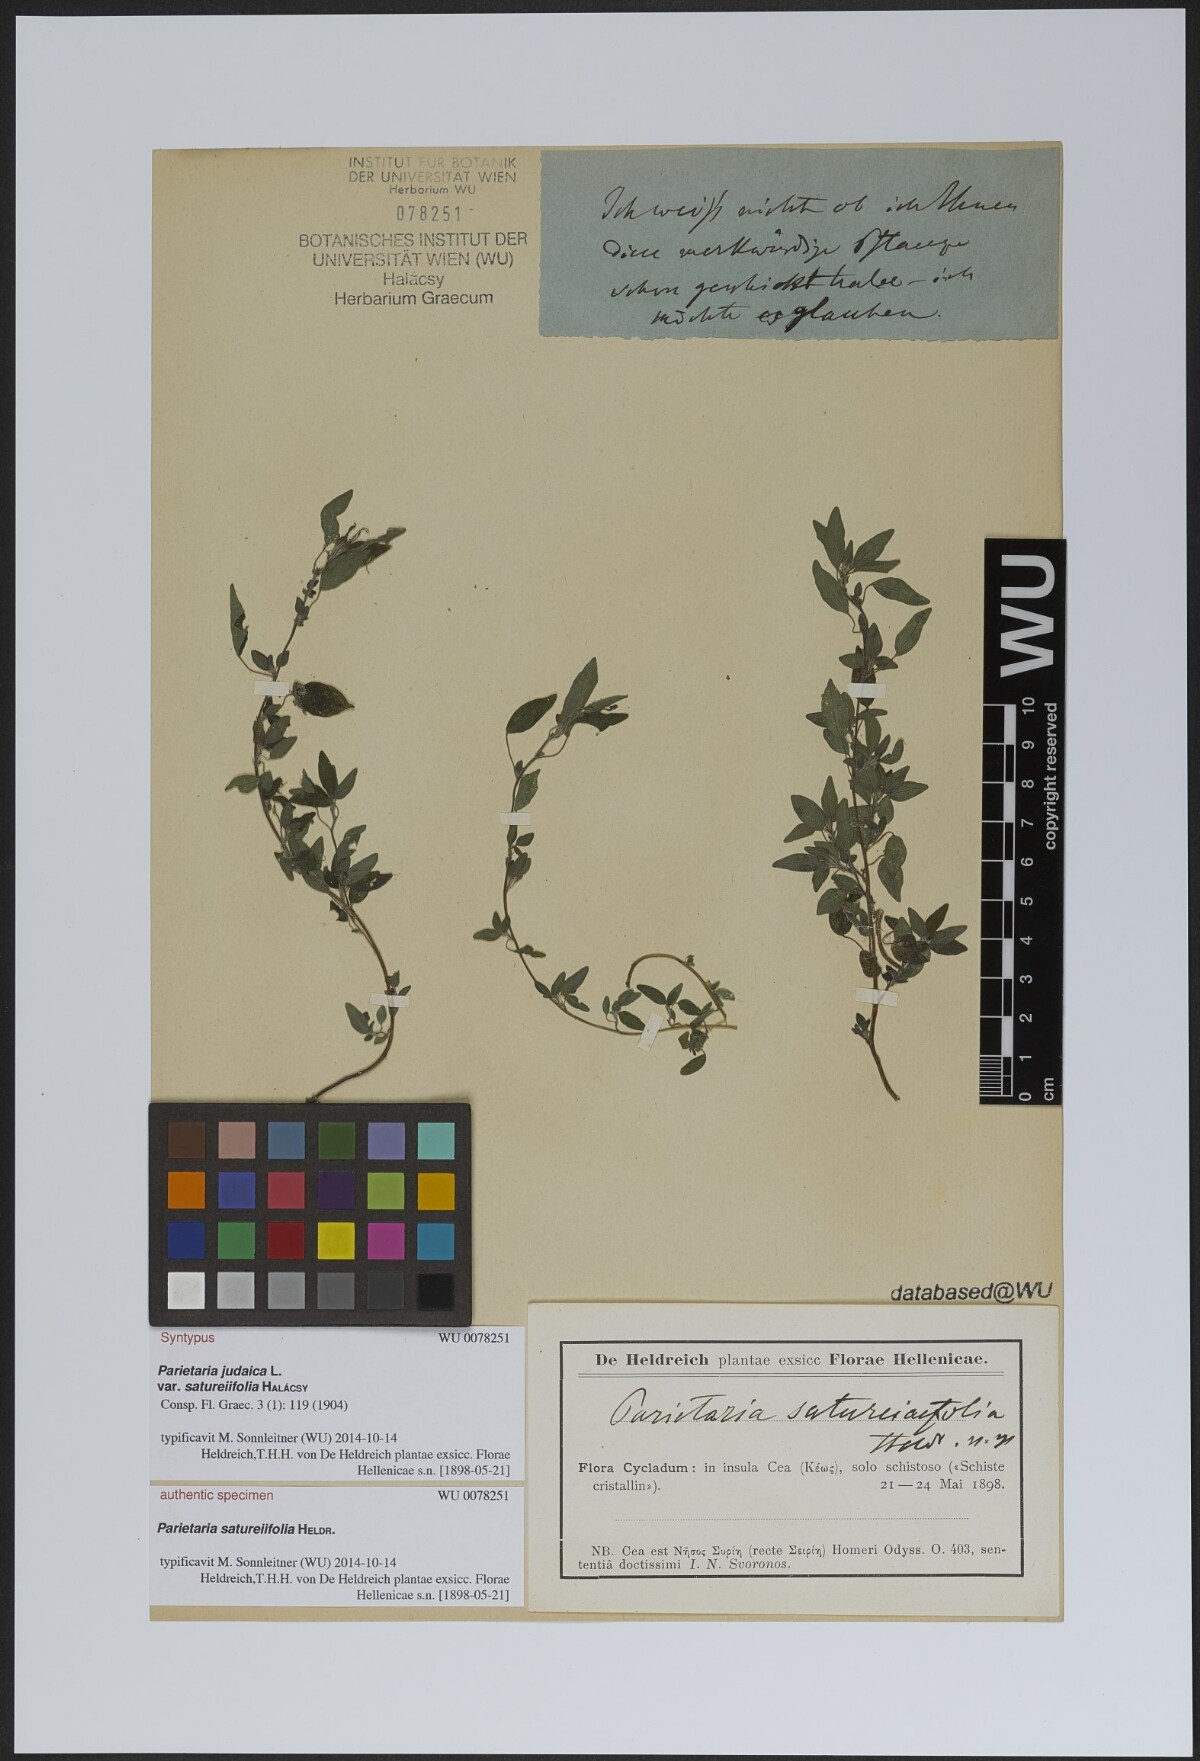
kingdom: Plantae
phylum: Tracheophyta
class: Magnoliopsida
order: Rosales
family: Urticaceae
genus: Parietaria
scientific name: Parietaria judaica
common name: Pellitory-of-the-wall
